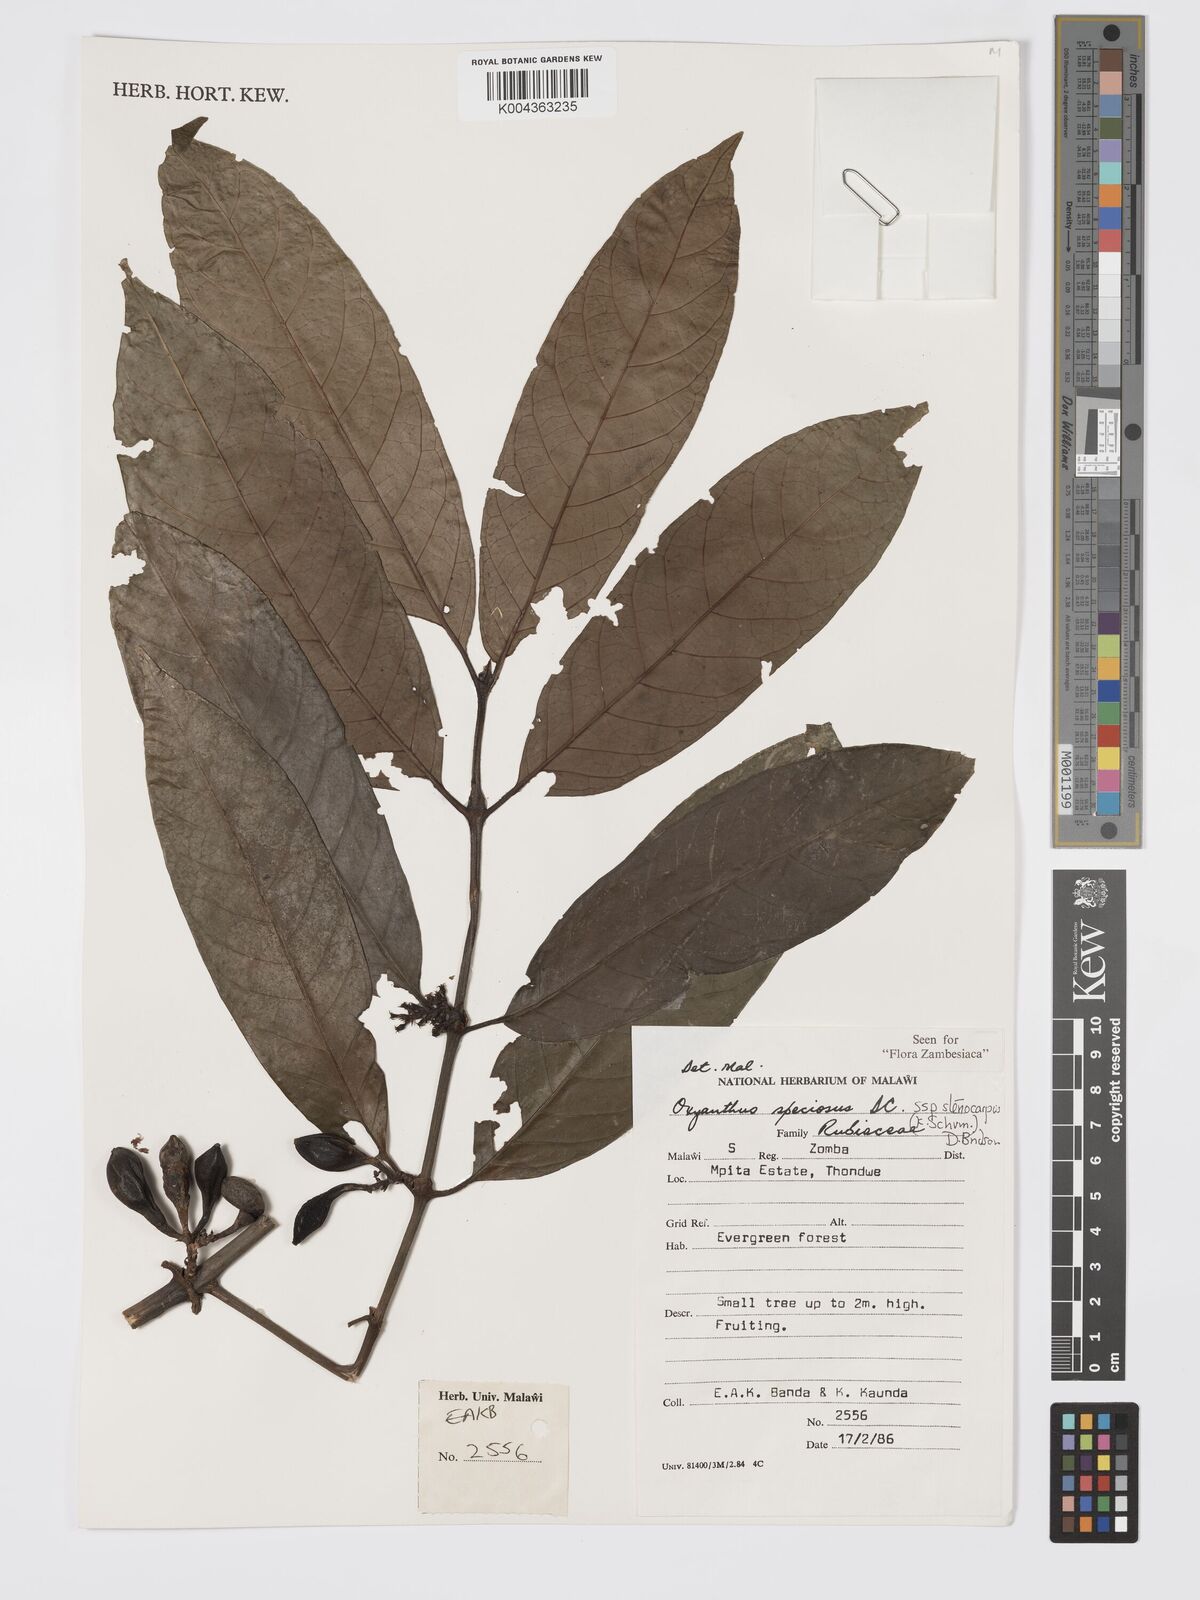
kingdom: Plantae
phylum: Tracheophyta
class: Magnoliopsida
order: Gentianales
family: Rubiaceae
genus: Oxyanthus
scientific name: Oxyanthus speciosus
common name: Whipstick loquat
